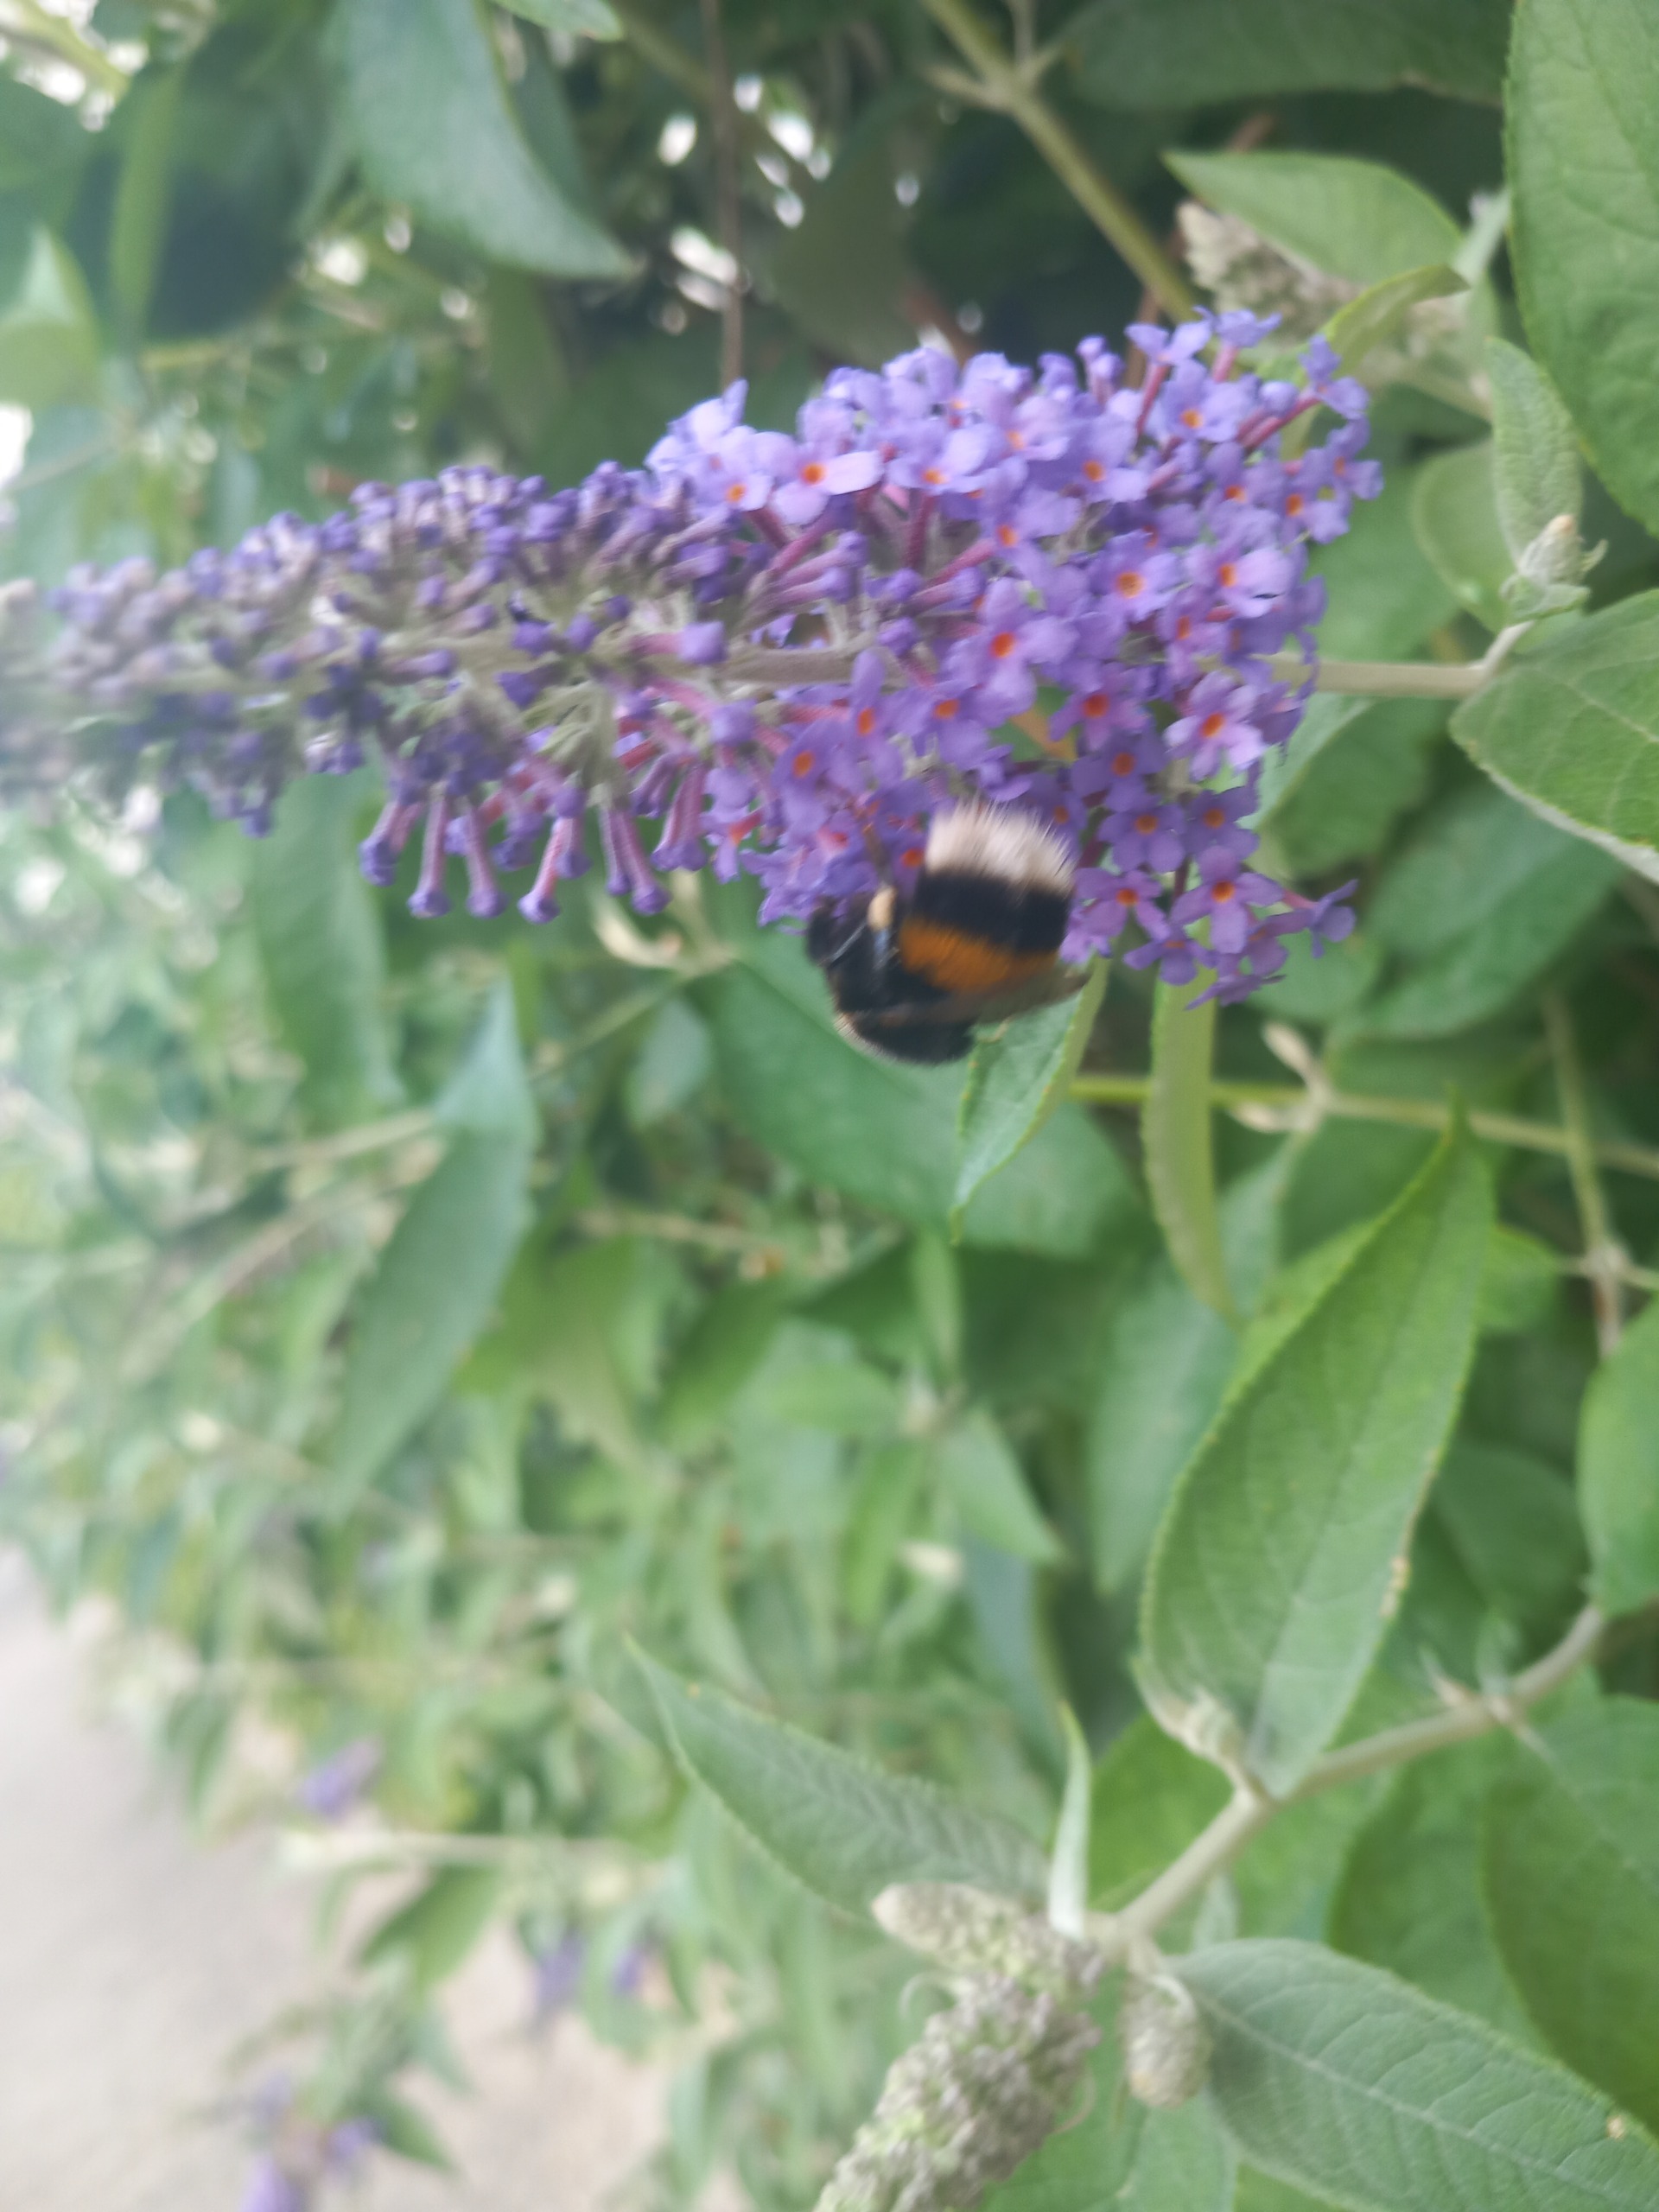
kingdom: Plantae
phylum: Tracheophyta
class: Magnoliopsida
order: Lamiales
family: Scrophulariaceae
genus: Buddleja
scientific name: Buddleja davidii
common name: Sommerfuglebusk
